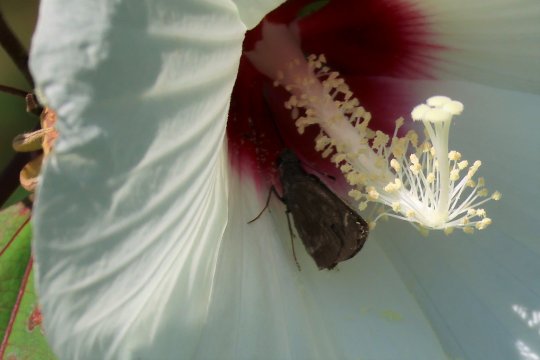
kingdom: Animalia
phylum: Arthropoda
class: Insecta
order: Lepidoptera
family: Hesperiidae
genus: Lerema
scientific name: Lerema accius
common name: Clouded Skipper
